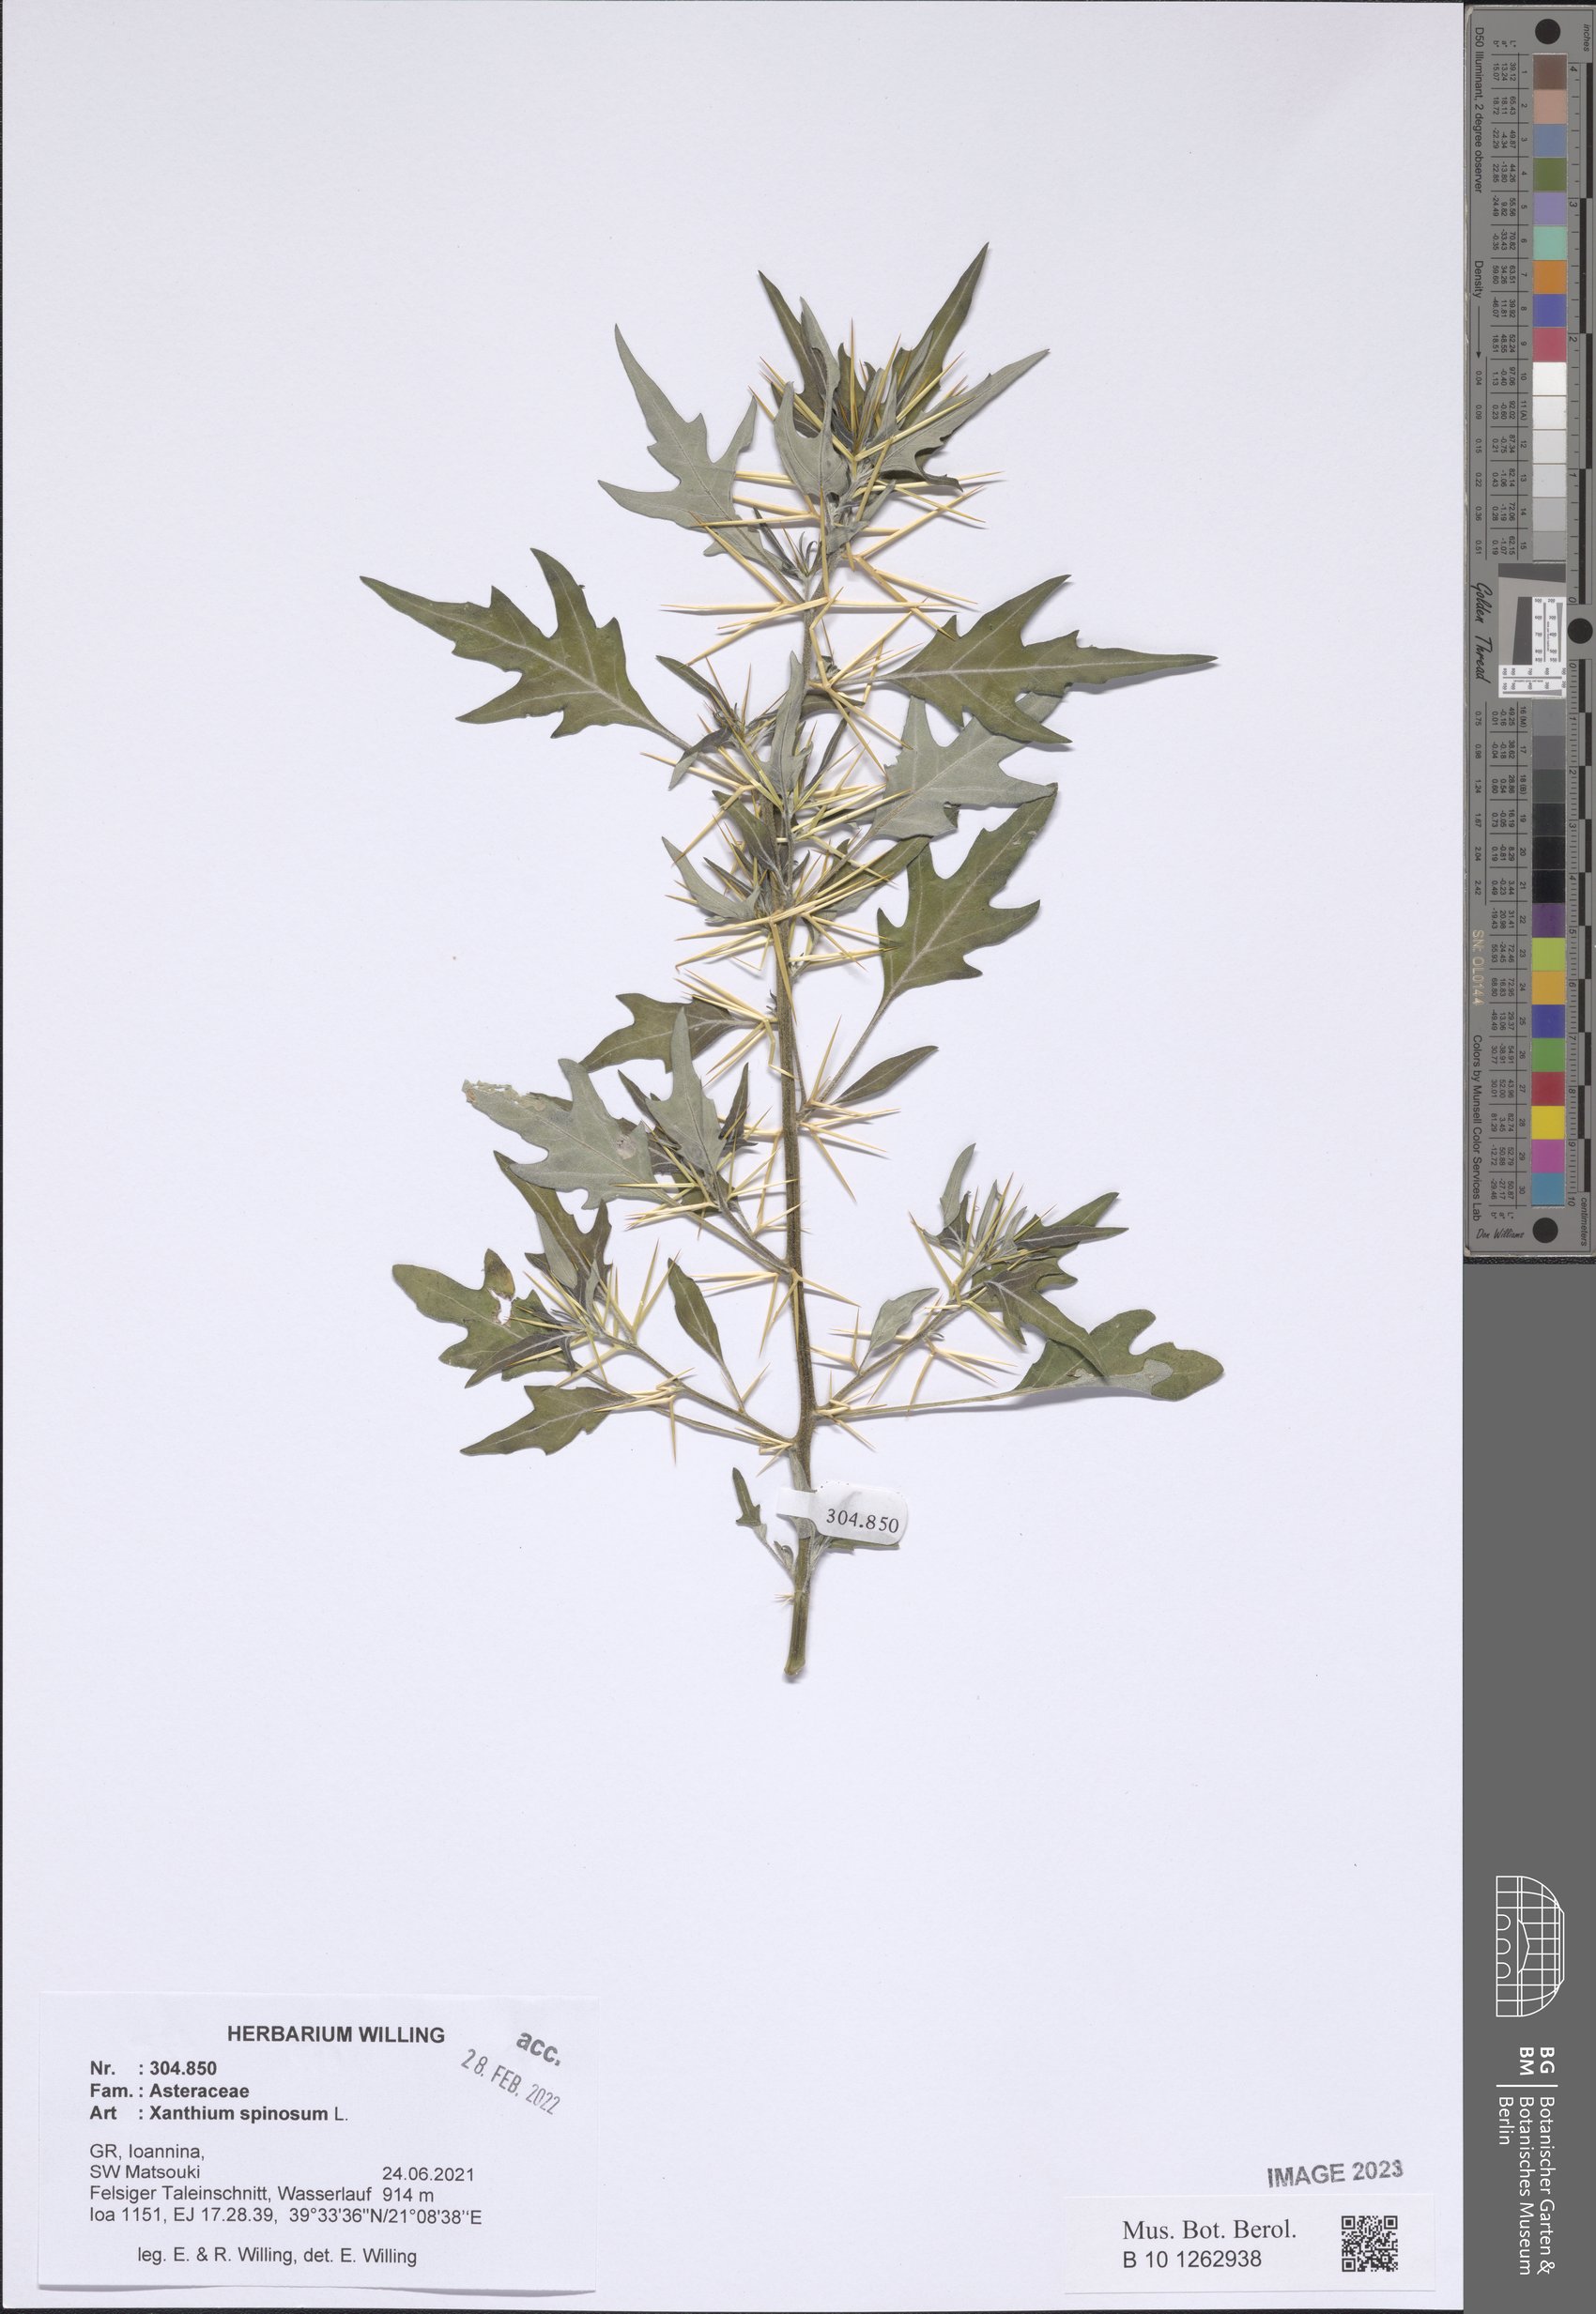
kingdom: Plantae
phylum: Tracheophyta
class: Magnoliopsida
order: Asterales
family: Asteraceae
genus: Xanthium
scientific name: Xanthium spinosum
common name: Spiny cocklebur
